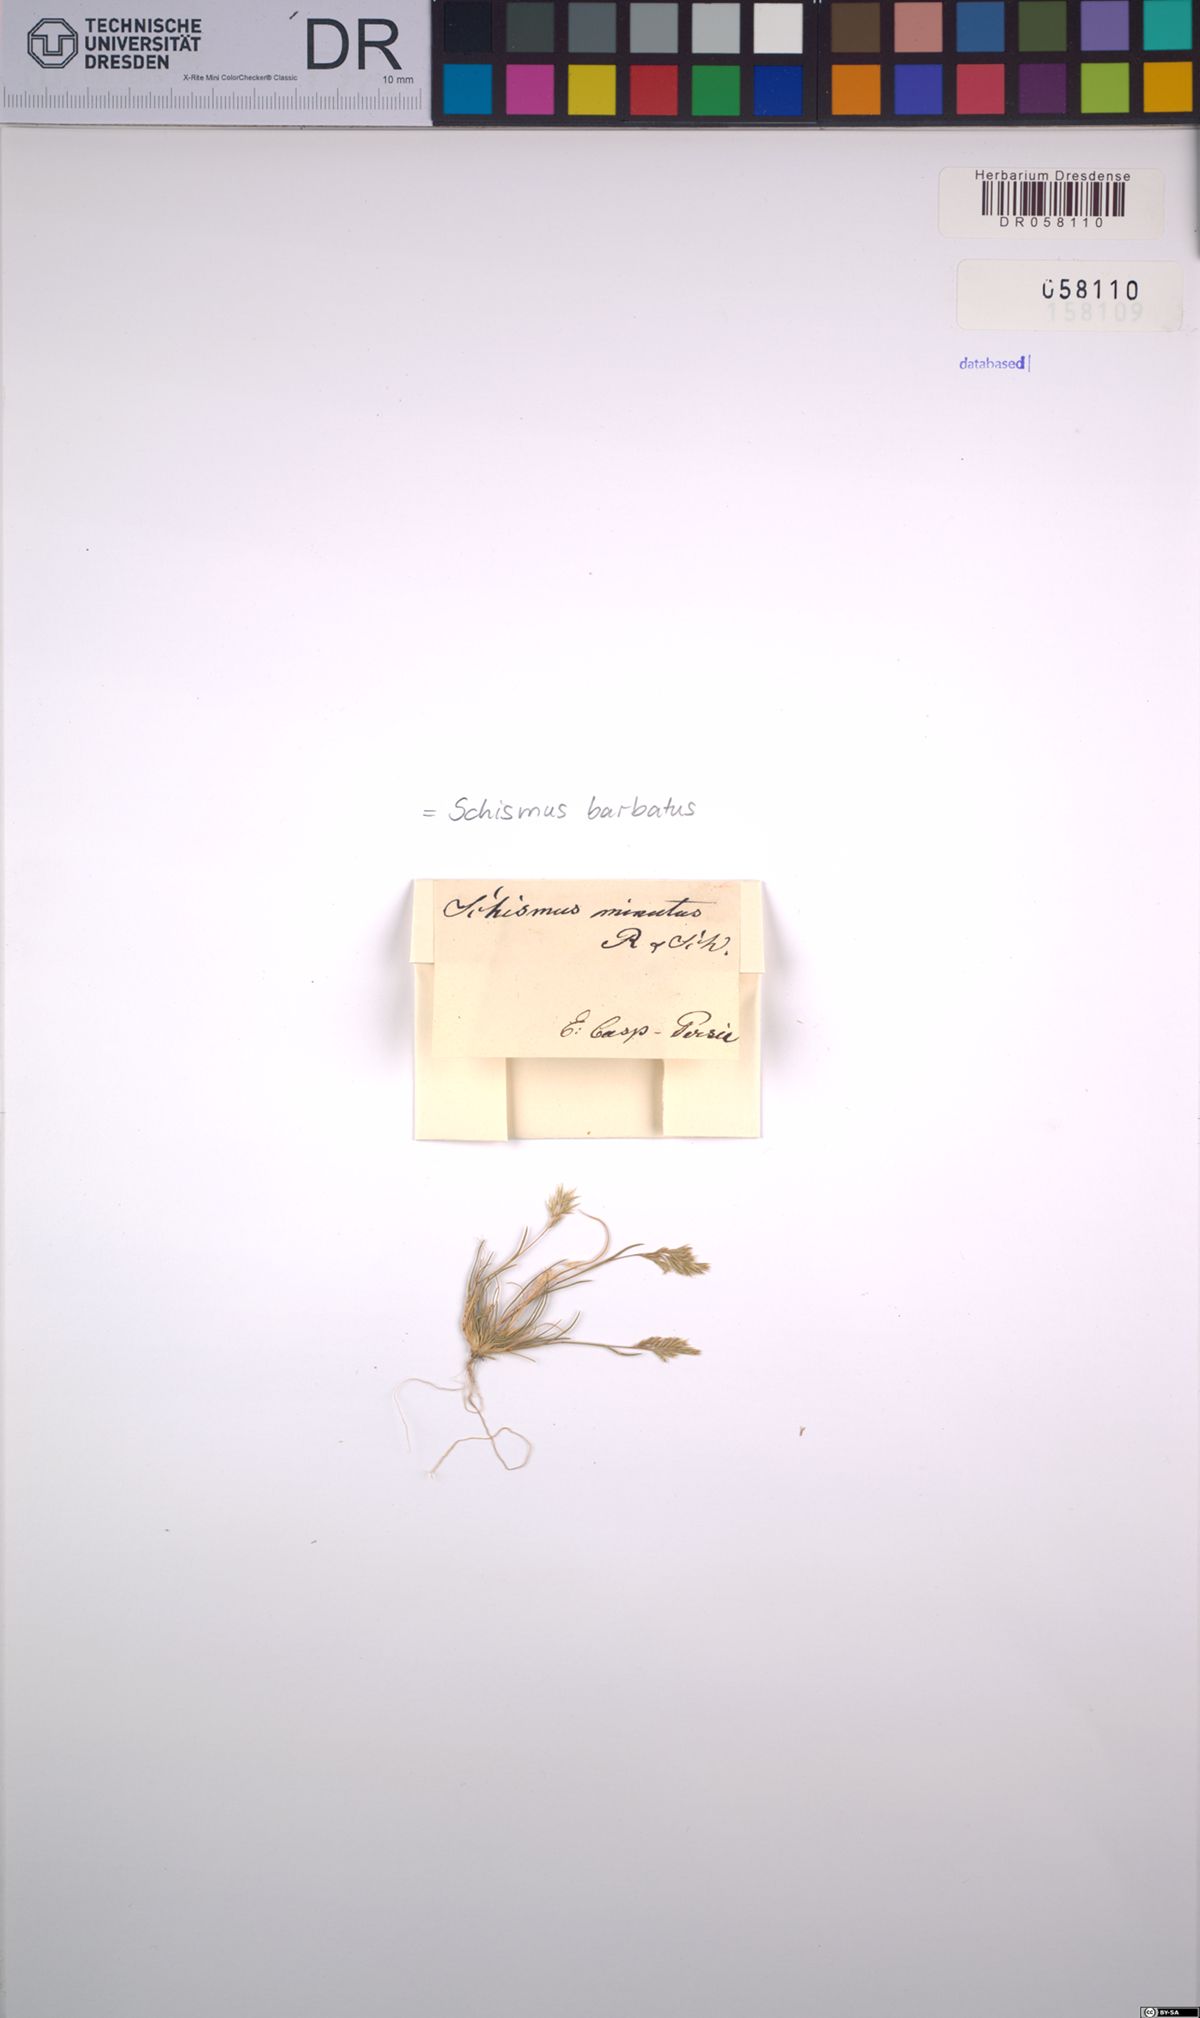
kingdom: Plantae
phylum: Tracheophyta
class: Liliopsida
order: Poales
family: Poaceae
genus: Schismus
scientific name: Schismus barbatus
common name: Kelch-grass
